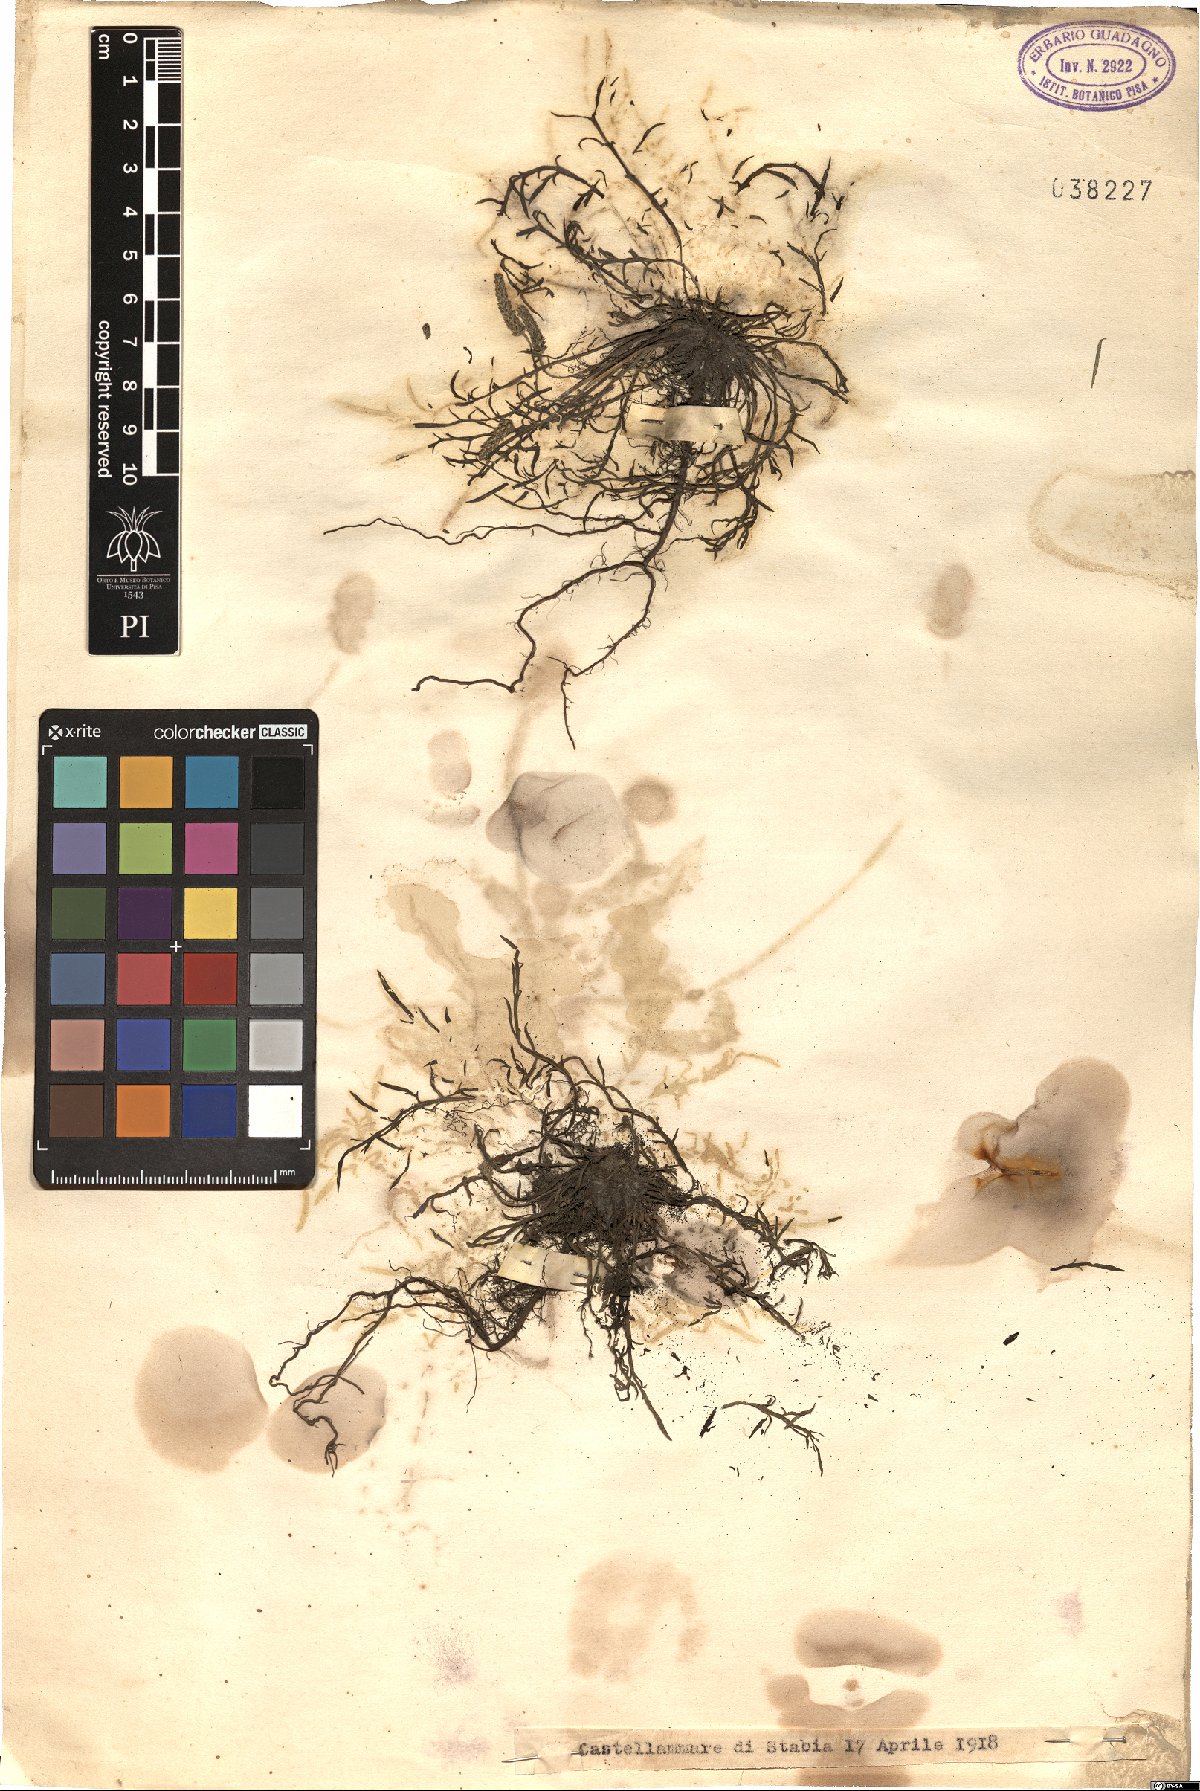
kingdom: Plantae
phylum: Tracheophyta
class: Magnoliopsida
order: Lamiales
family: Plantaginaceae
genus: Plantago
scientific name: Plantago
